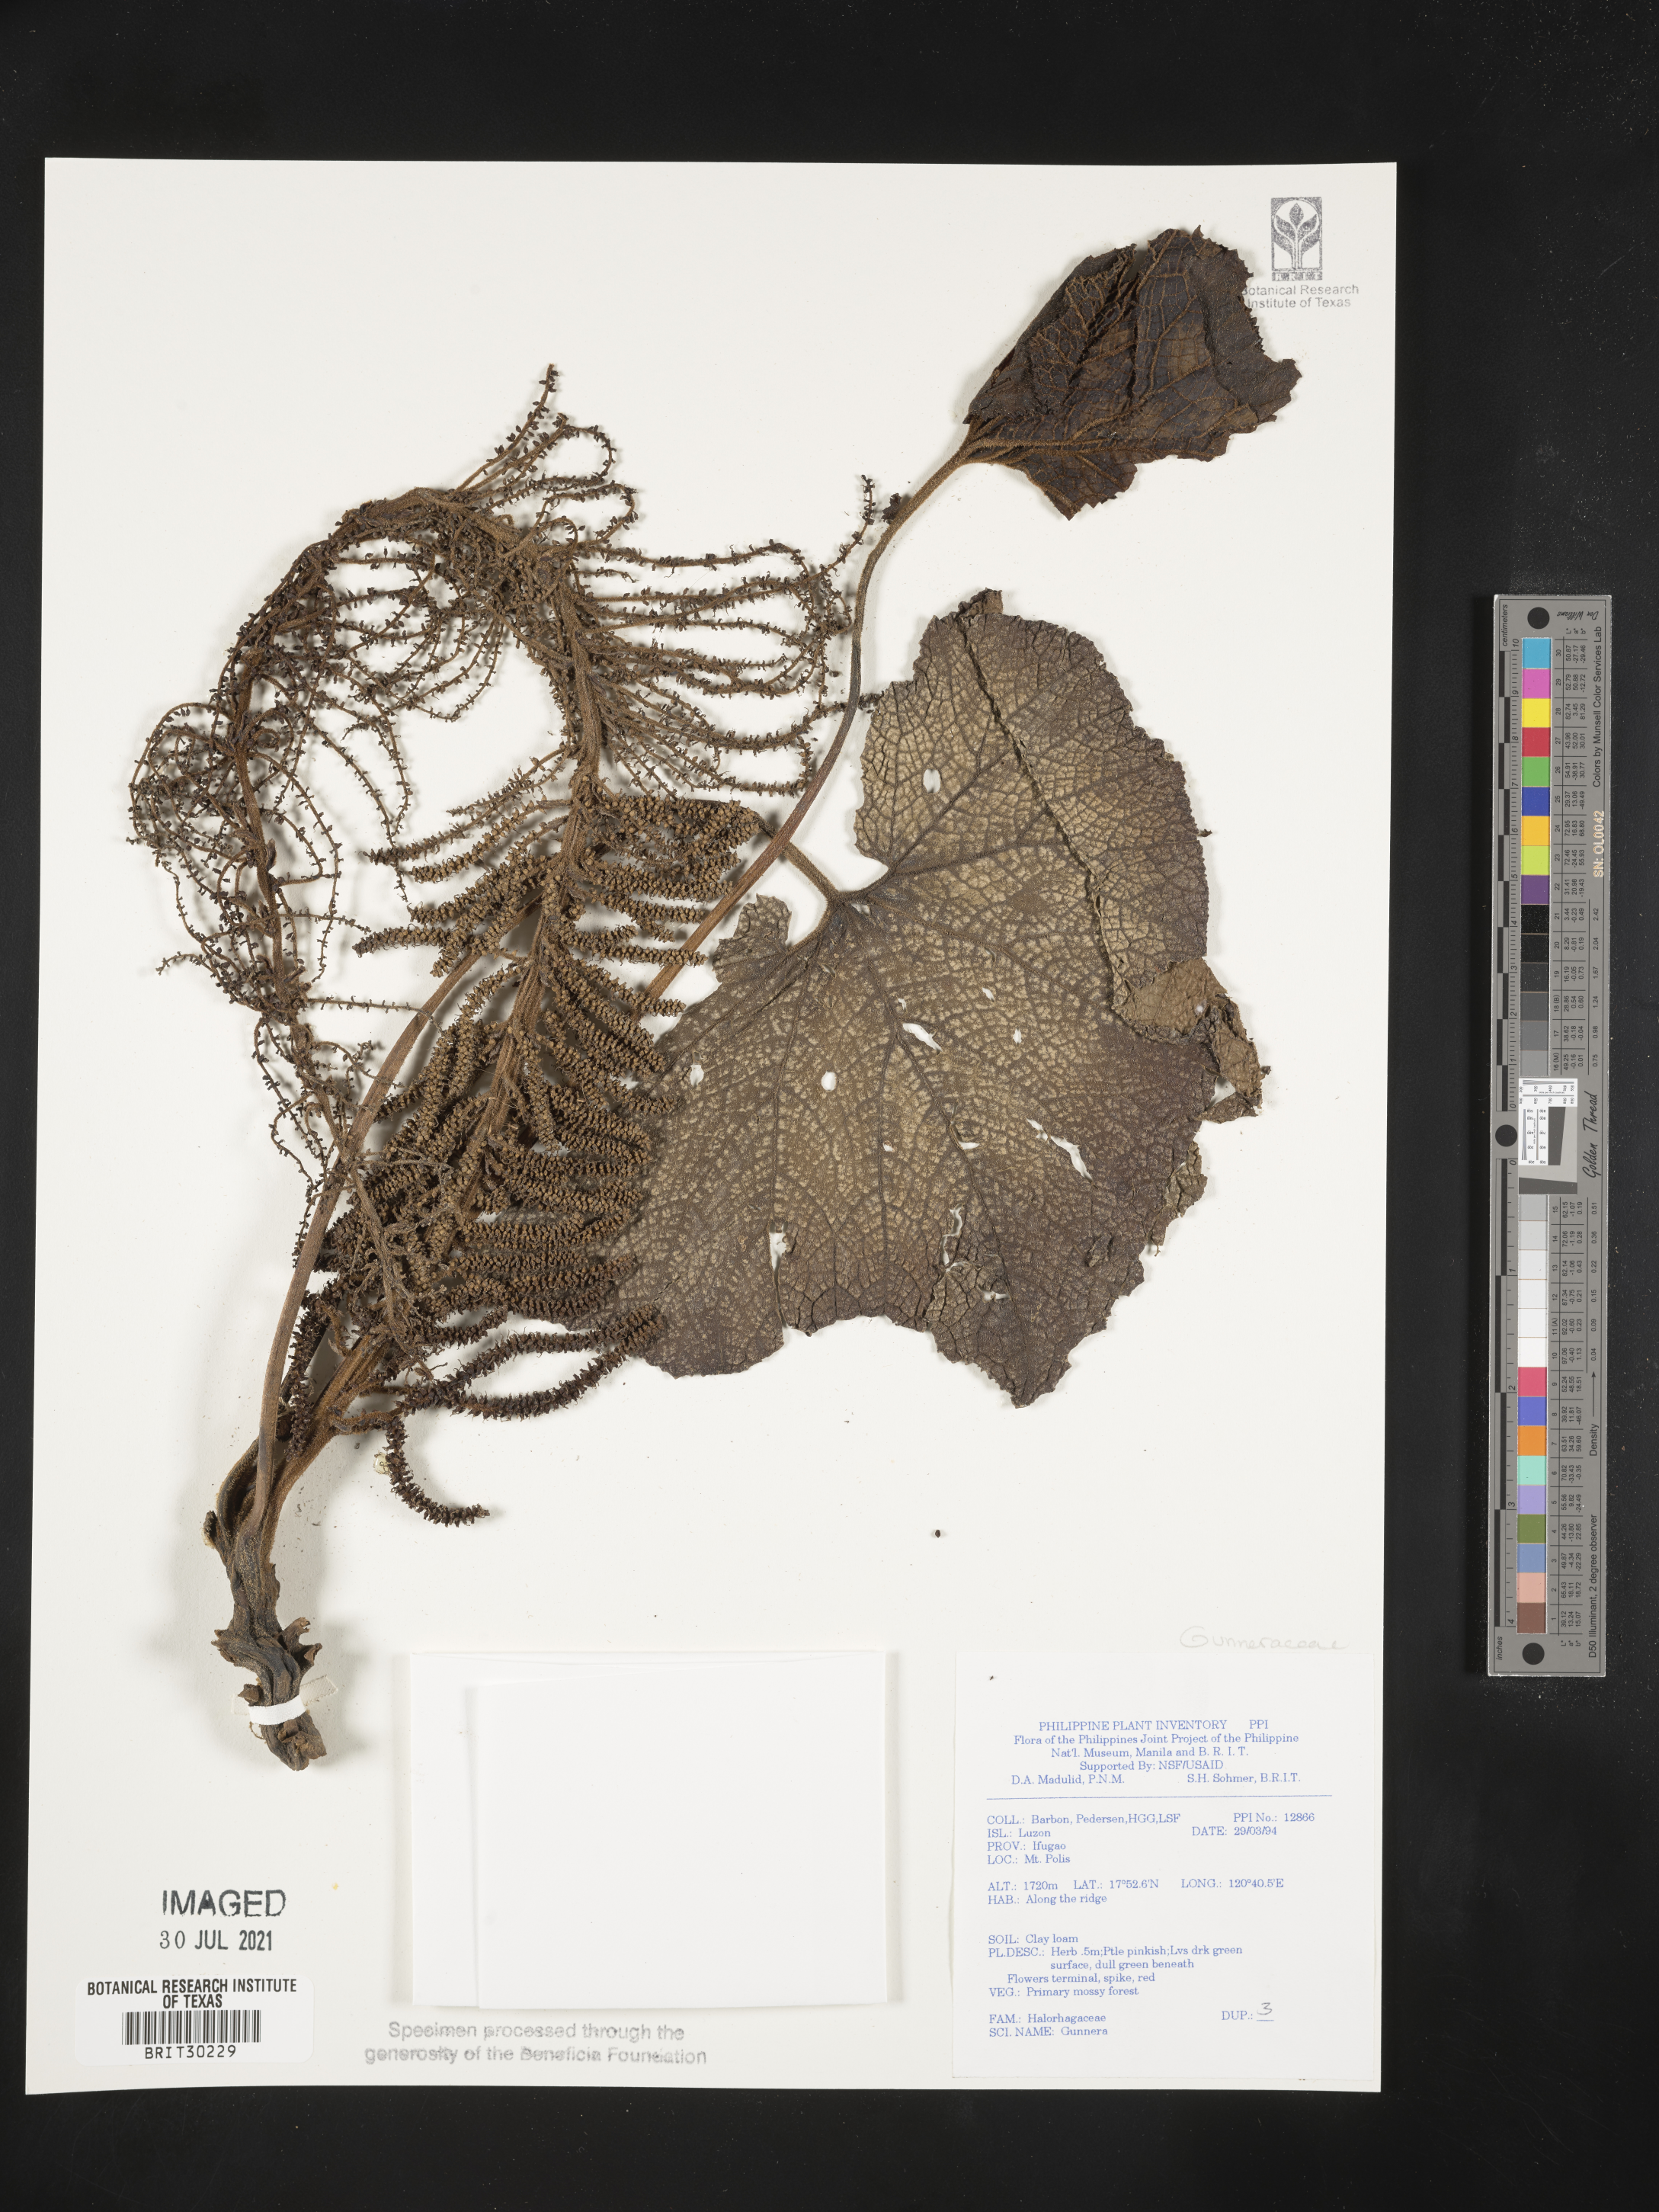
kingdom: Plantae
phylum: Tracheophyta
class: Magnoliopsida
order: Gunnerales
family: Gunneraceae
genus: Gunnera
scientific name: Gunnera
